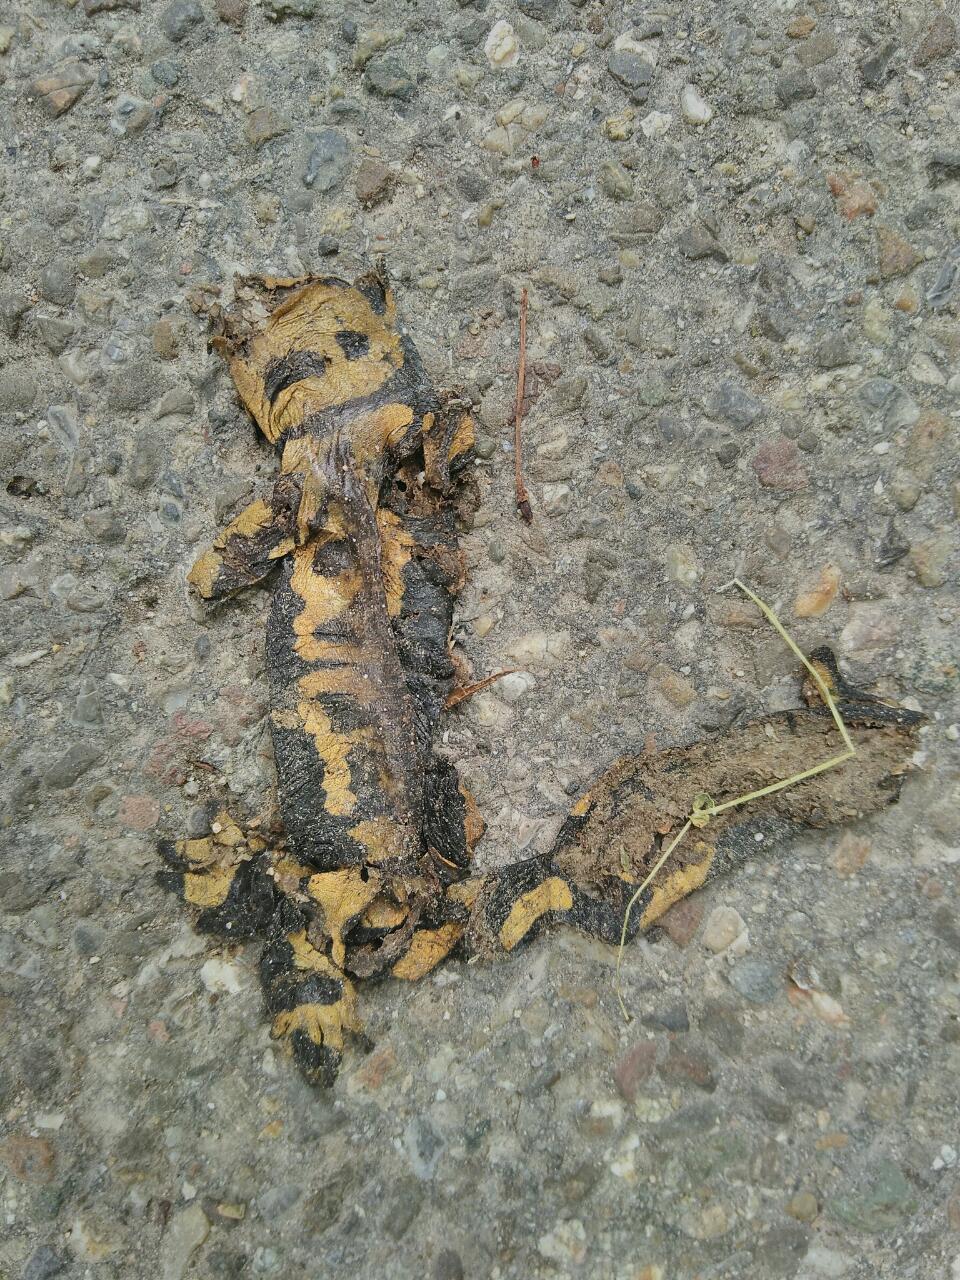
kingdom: Animalia
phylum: Chordata
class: Amphibia
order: Caudata
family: Salamandridae
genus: Salamandra
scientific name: Salamandra salamandra
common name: Fire salamander
